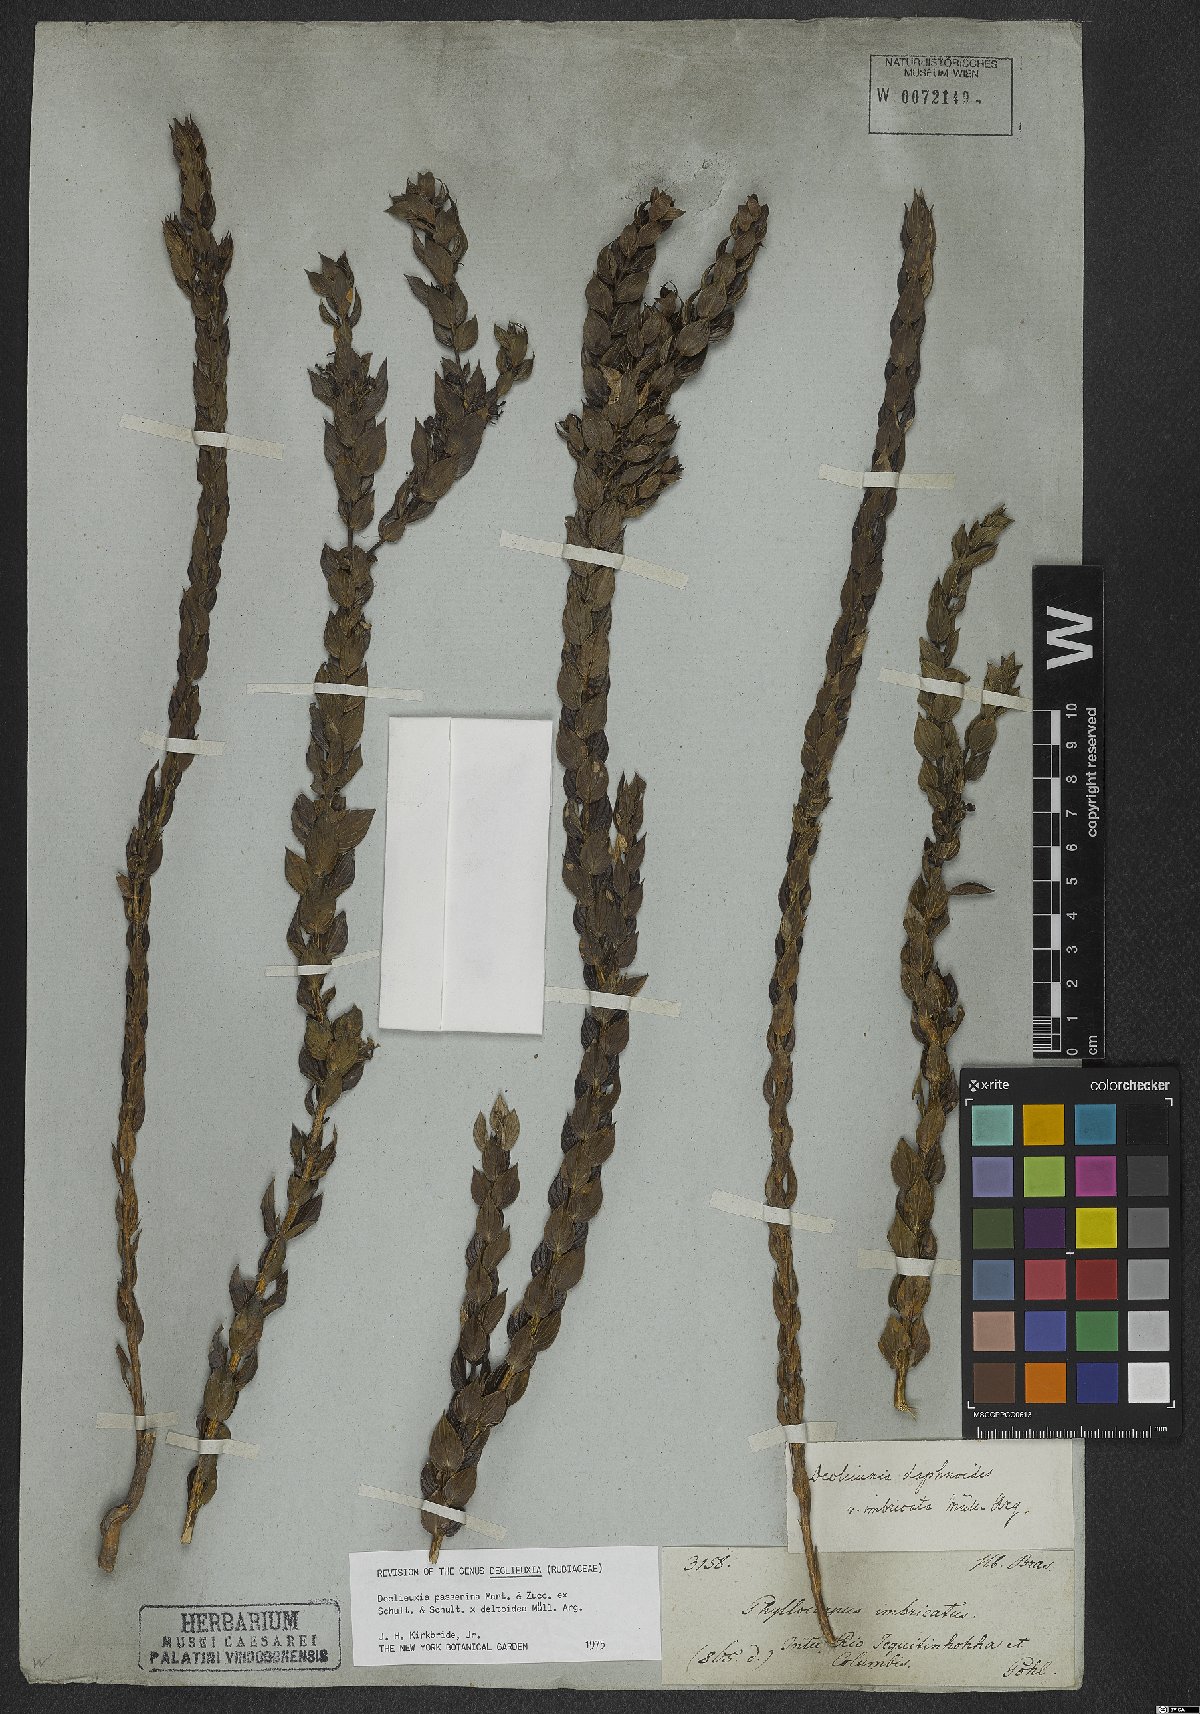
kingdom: Plantae
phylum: Tracheophyta
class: Magnoliopsida
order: Gentianales
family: Rubiaceae
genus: Declieuxia
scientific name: Declieuxia deltoidea
